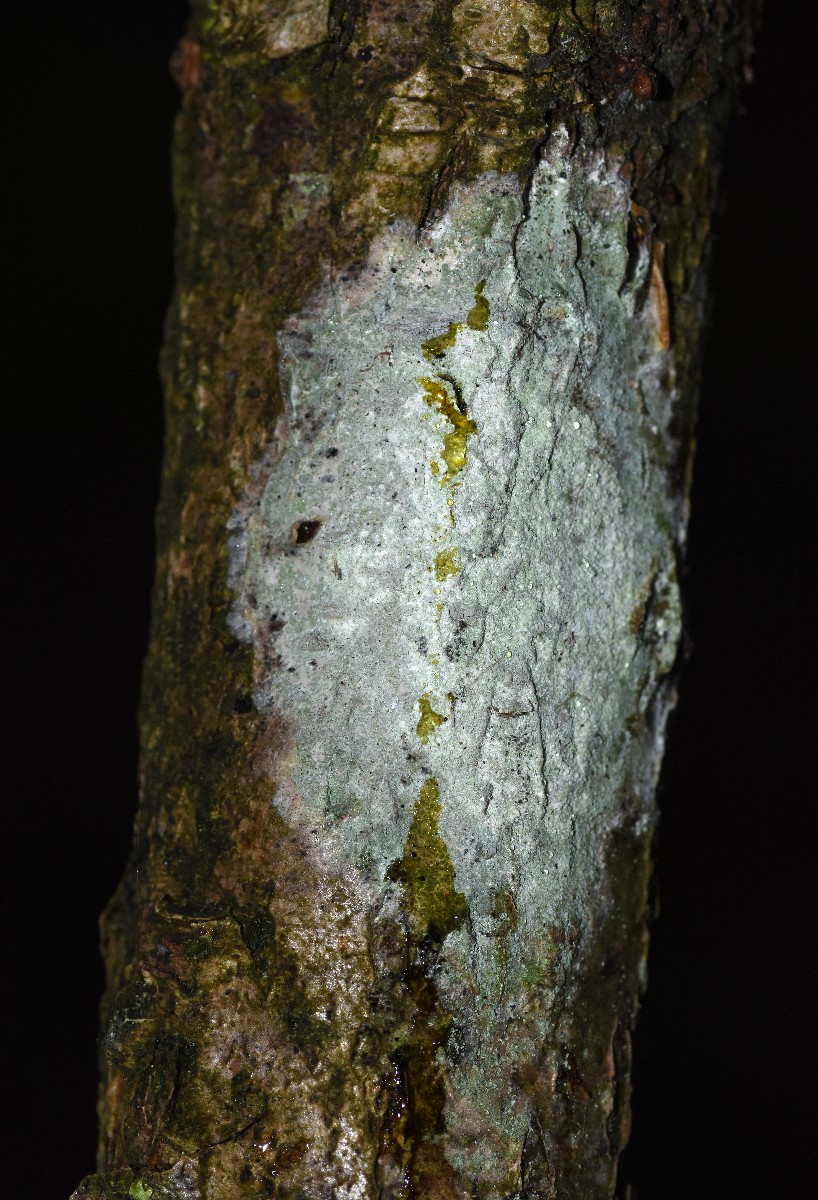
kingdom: Fungi
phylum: Ascomycota
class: Lecanoromycetes
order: Ostropales
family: Phlyctidaceae
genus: Phlyctis
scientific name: Phlyctis argena
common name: almindelig sølvlav
